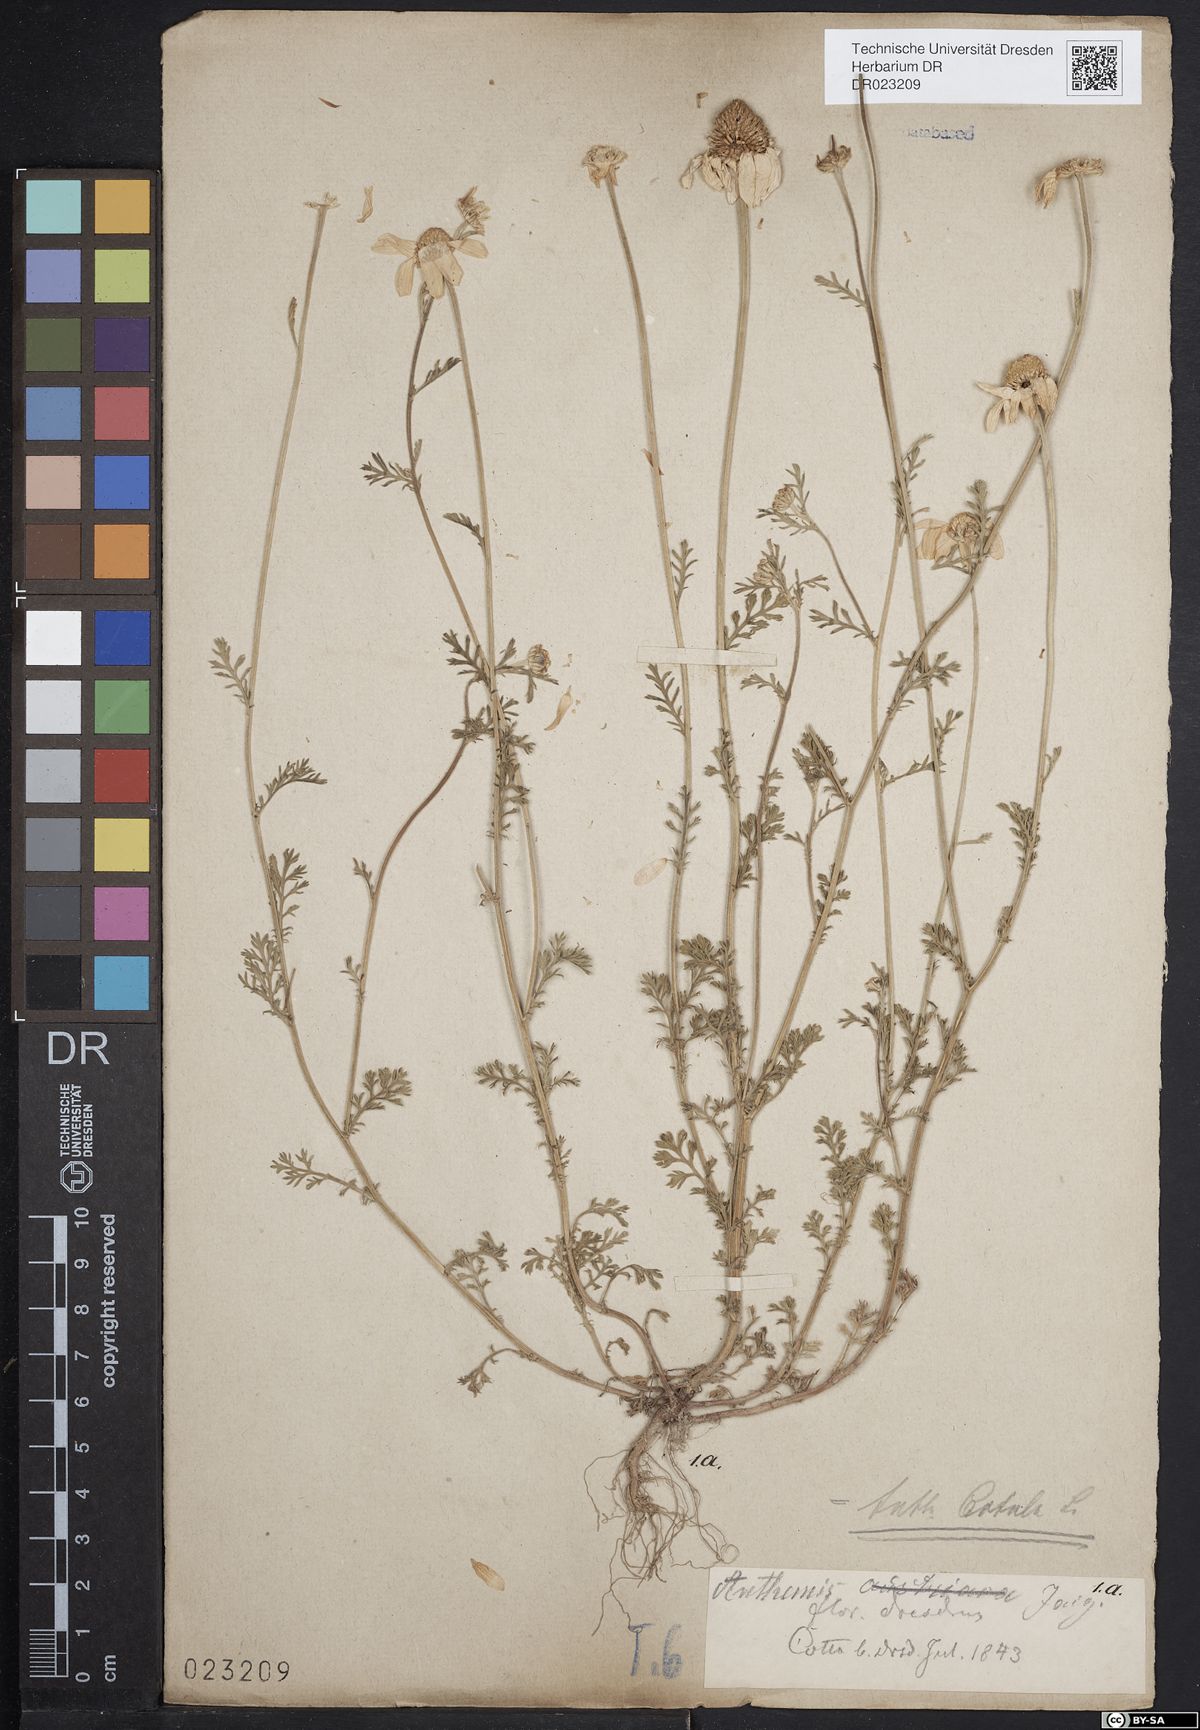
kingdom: Plantae
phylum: Tracheophyta
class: Magnoliopsida
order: Asterales
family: Asteraceae
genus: Anthemis
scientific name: Anthemis cotula
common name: Stinking chamomile
